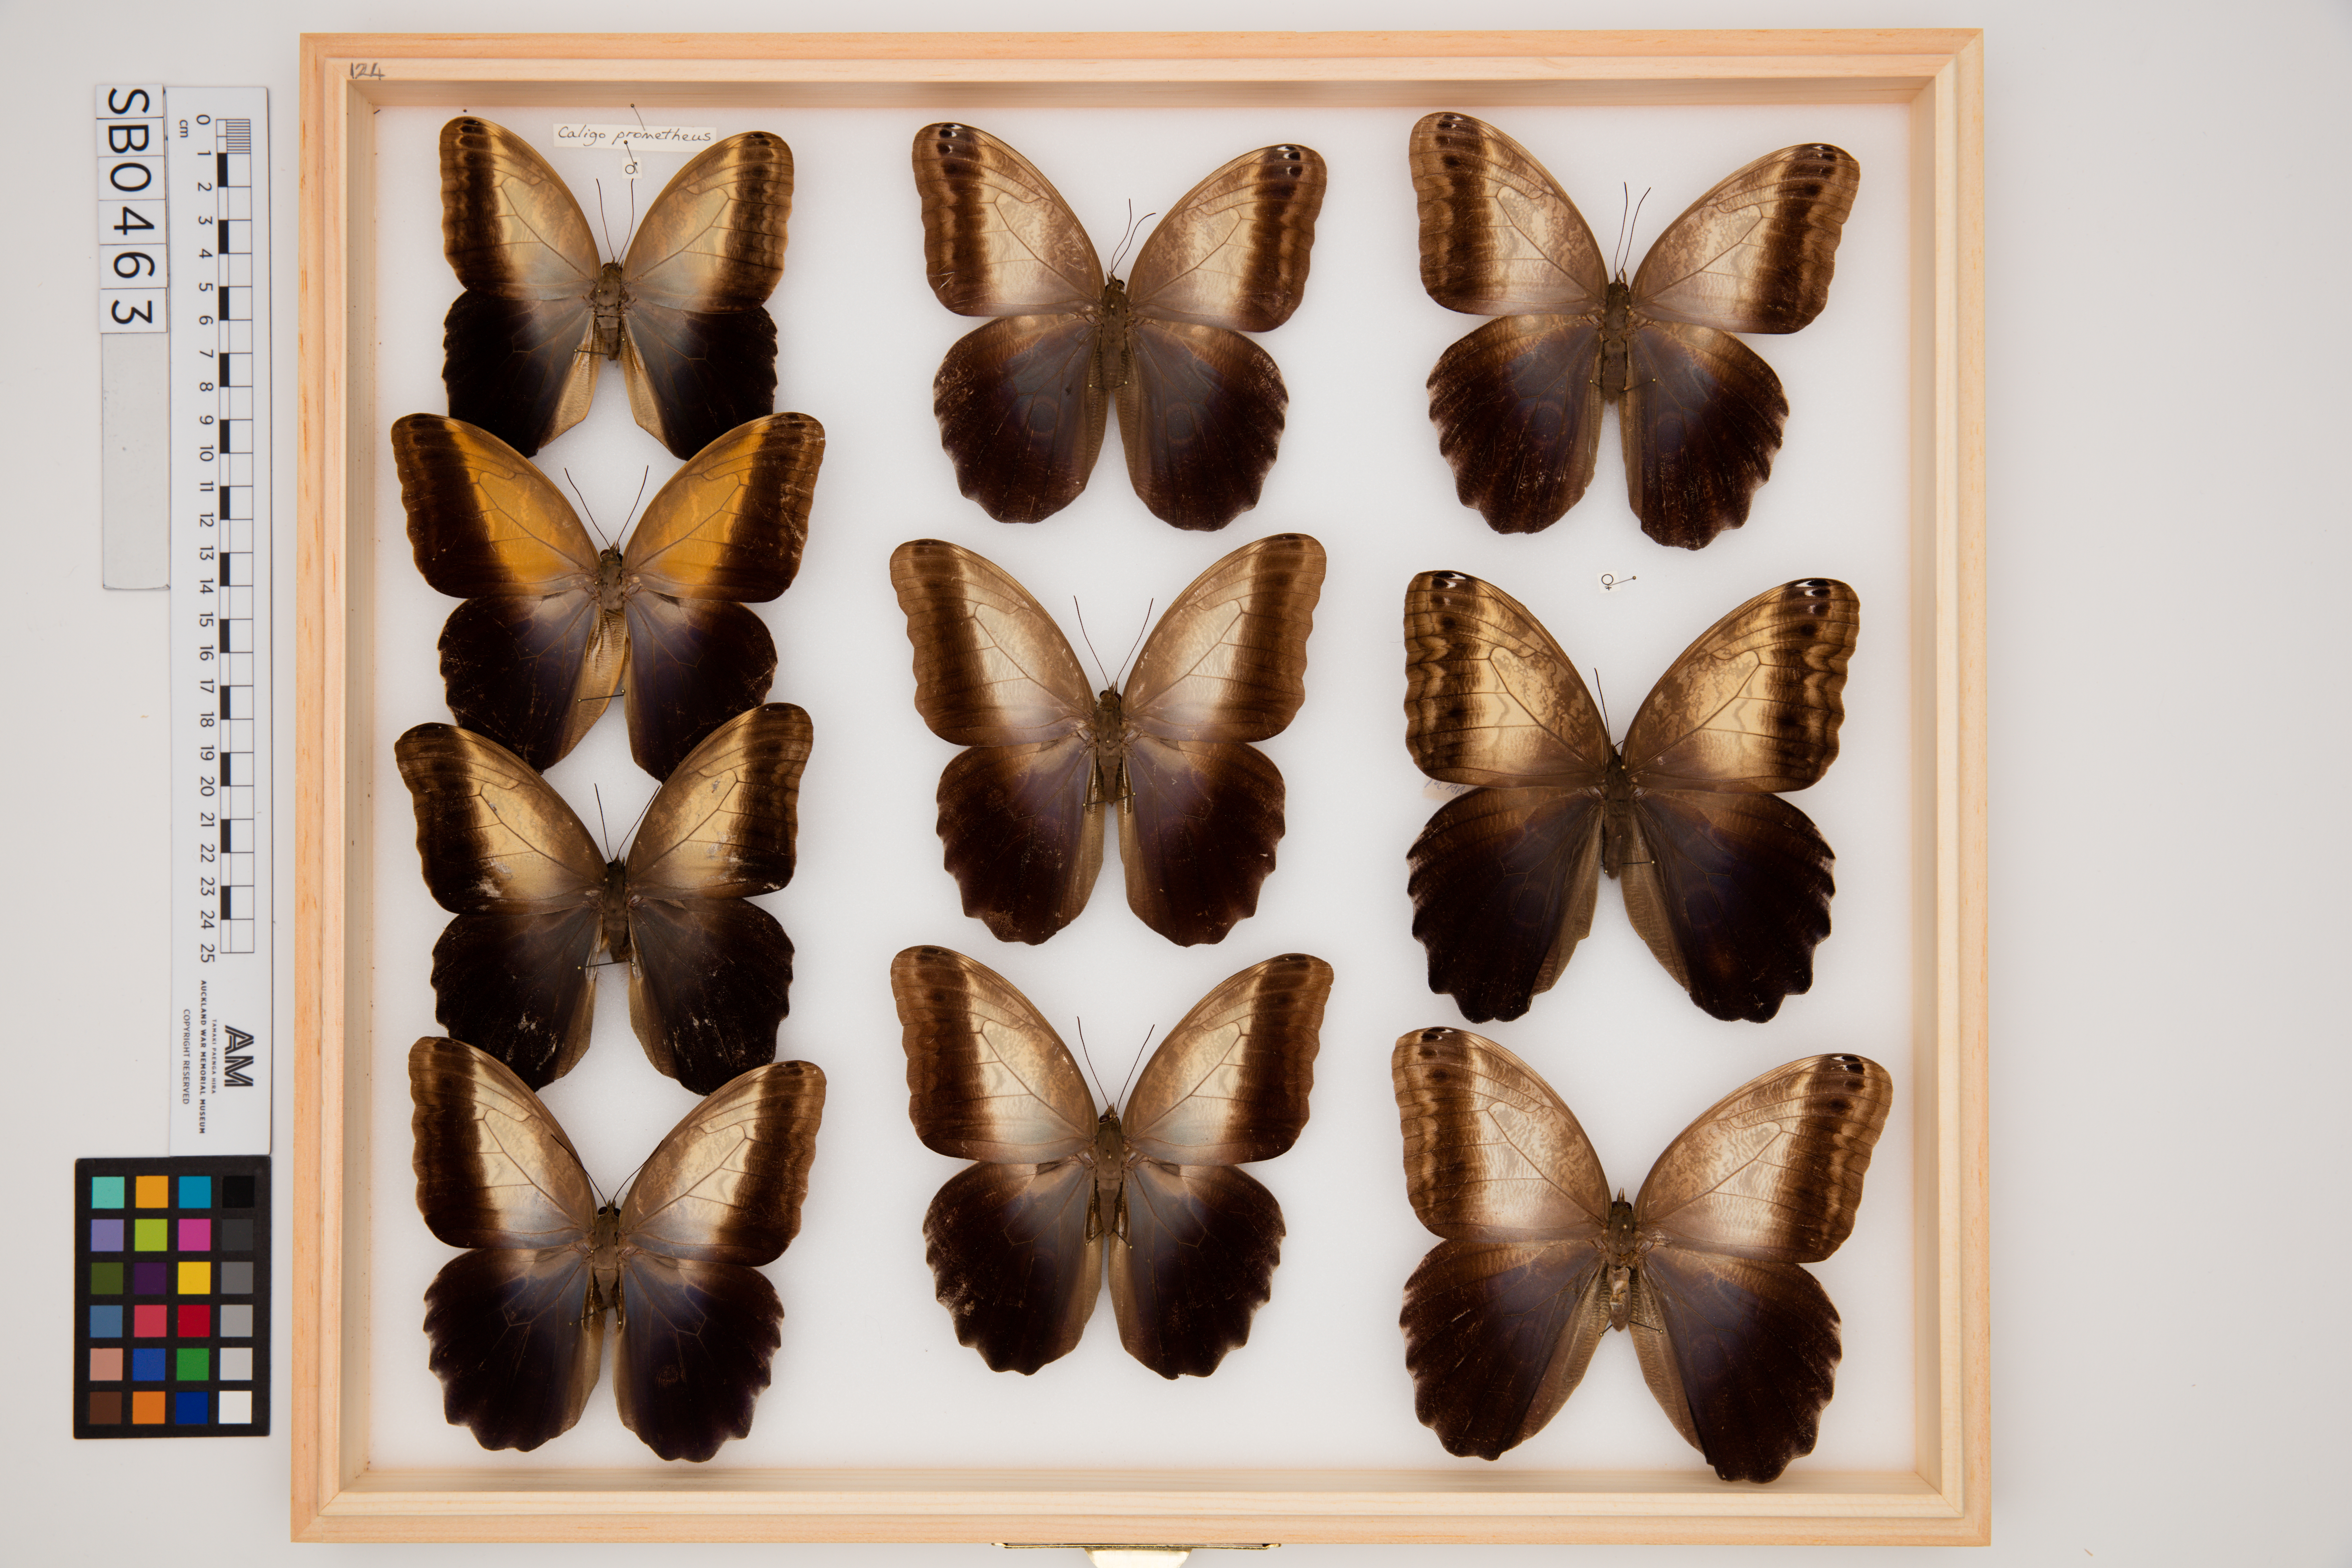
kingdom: Animalia
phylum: Arthropoda
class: Insecta
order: Lepidoptera
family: Nymphalidae
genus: Caligo
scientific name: Caligo prometheus
